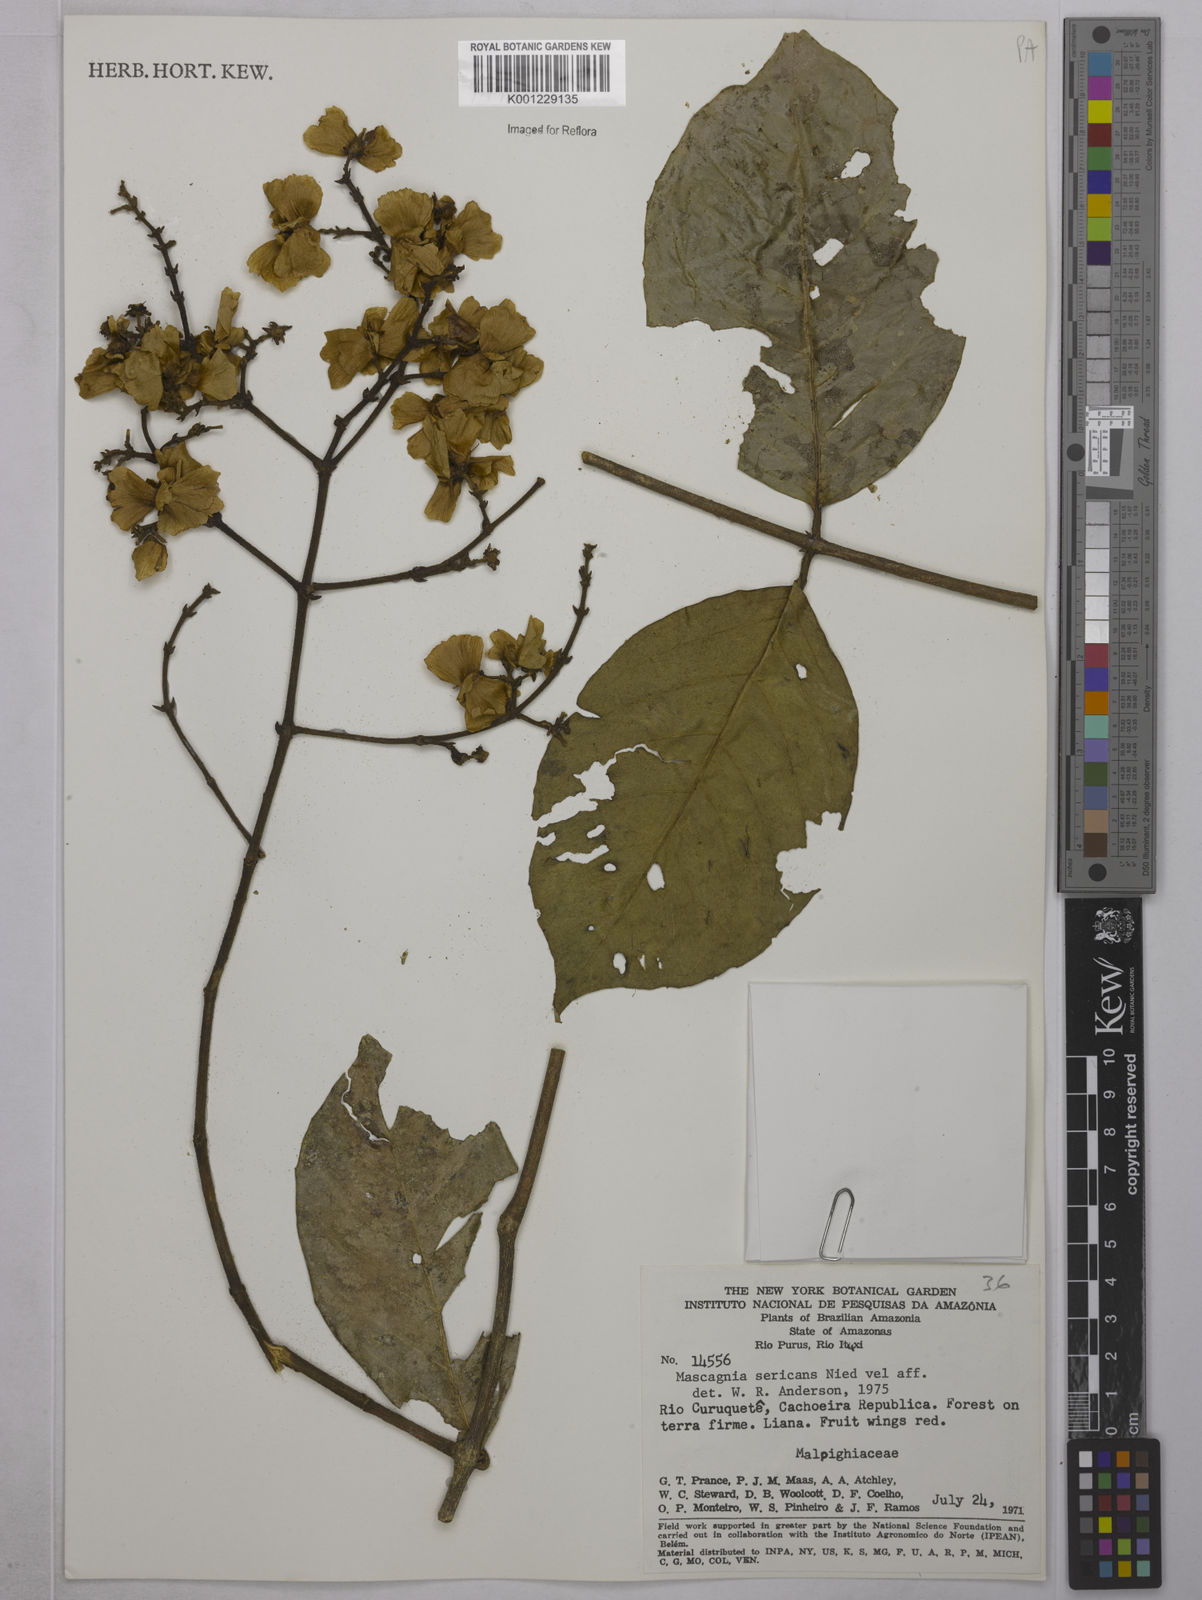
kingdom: Plantae
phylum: Tracheophyta
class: Magnoliopsida
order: Malpighiales
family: Malpighiaceae
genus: Niedenzuella
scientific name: Niedenzuella stannea
